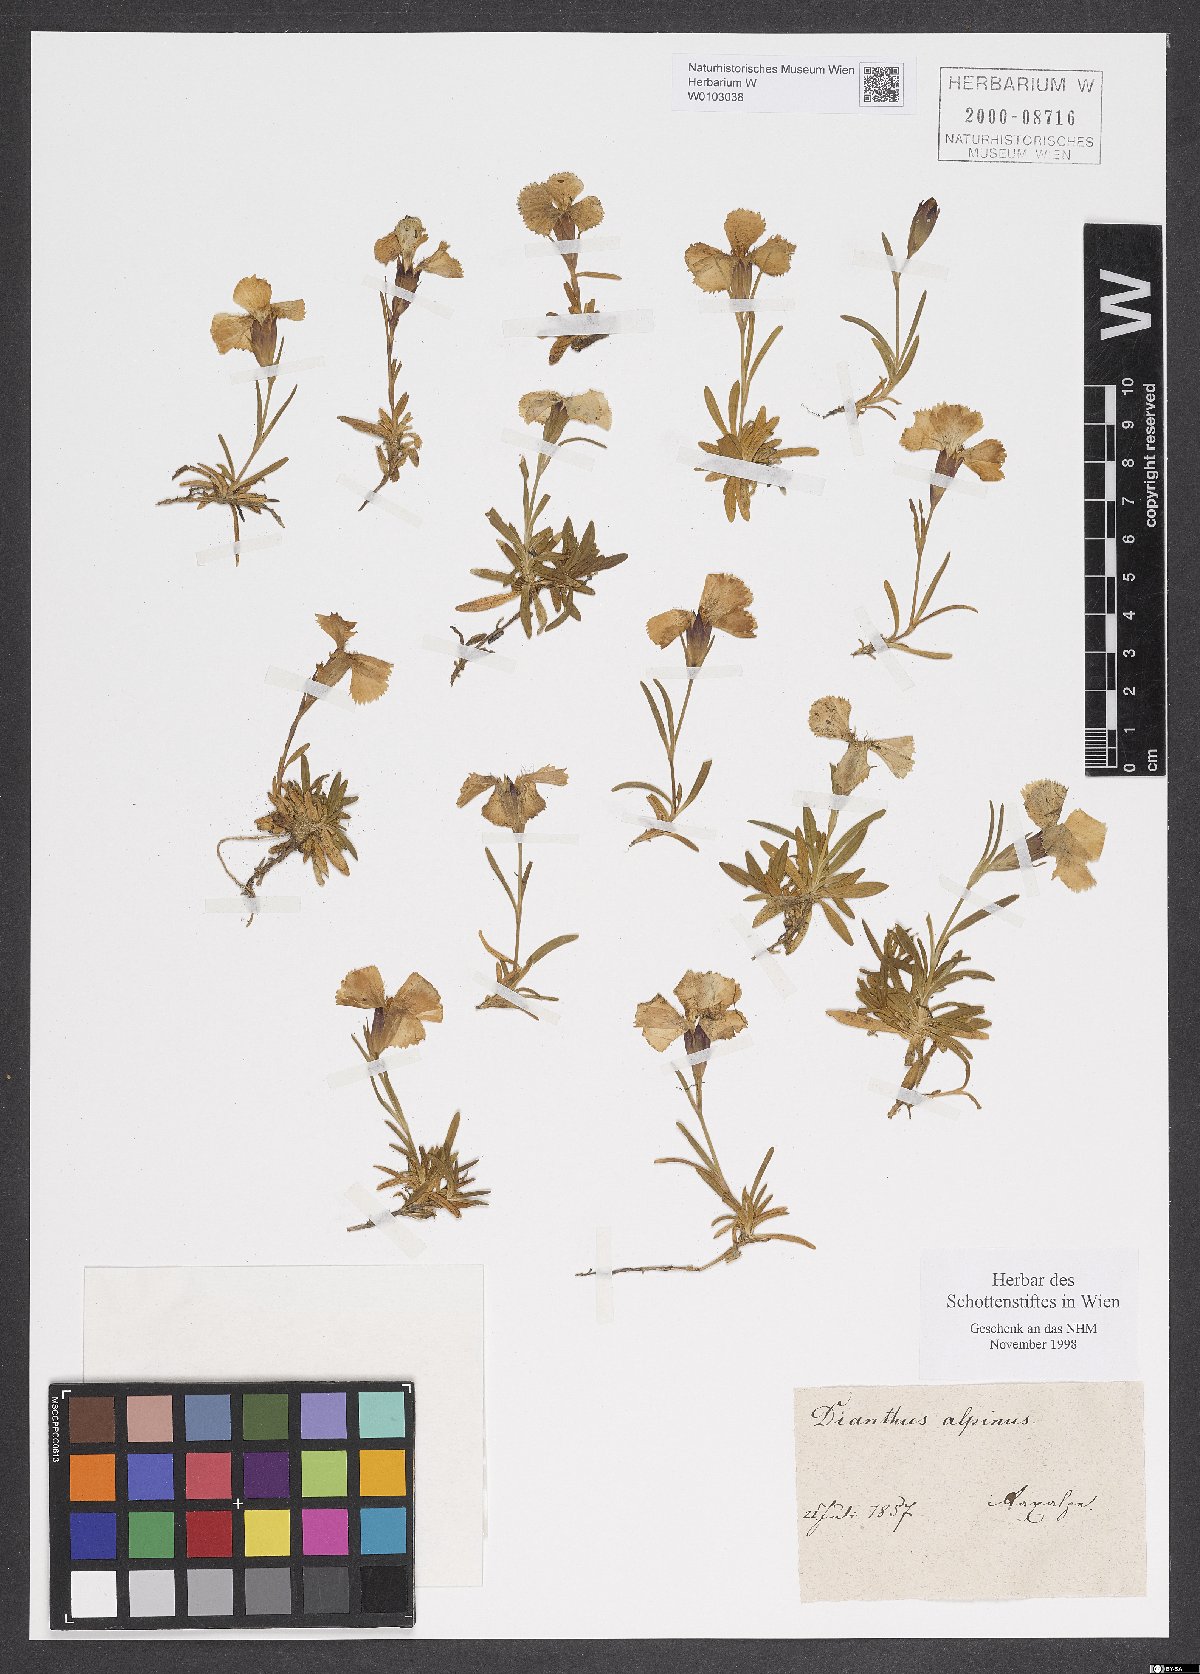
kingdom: Plantae
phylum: Tracheophyta
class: Magnoliopsida
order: Caryophyllales
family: Caryophyllaceae
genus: Dianthus
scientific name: Dianthus alpinus
